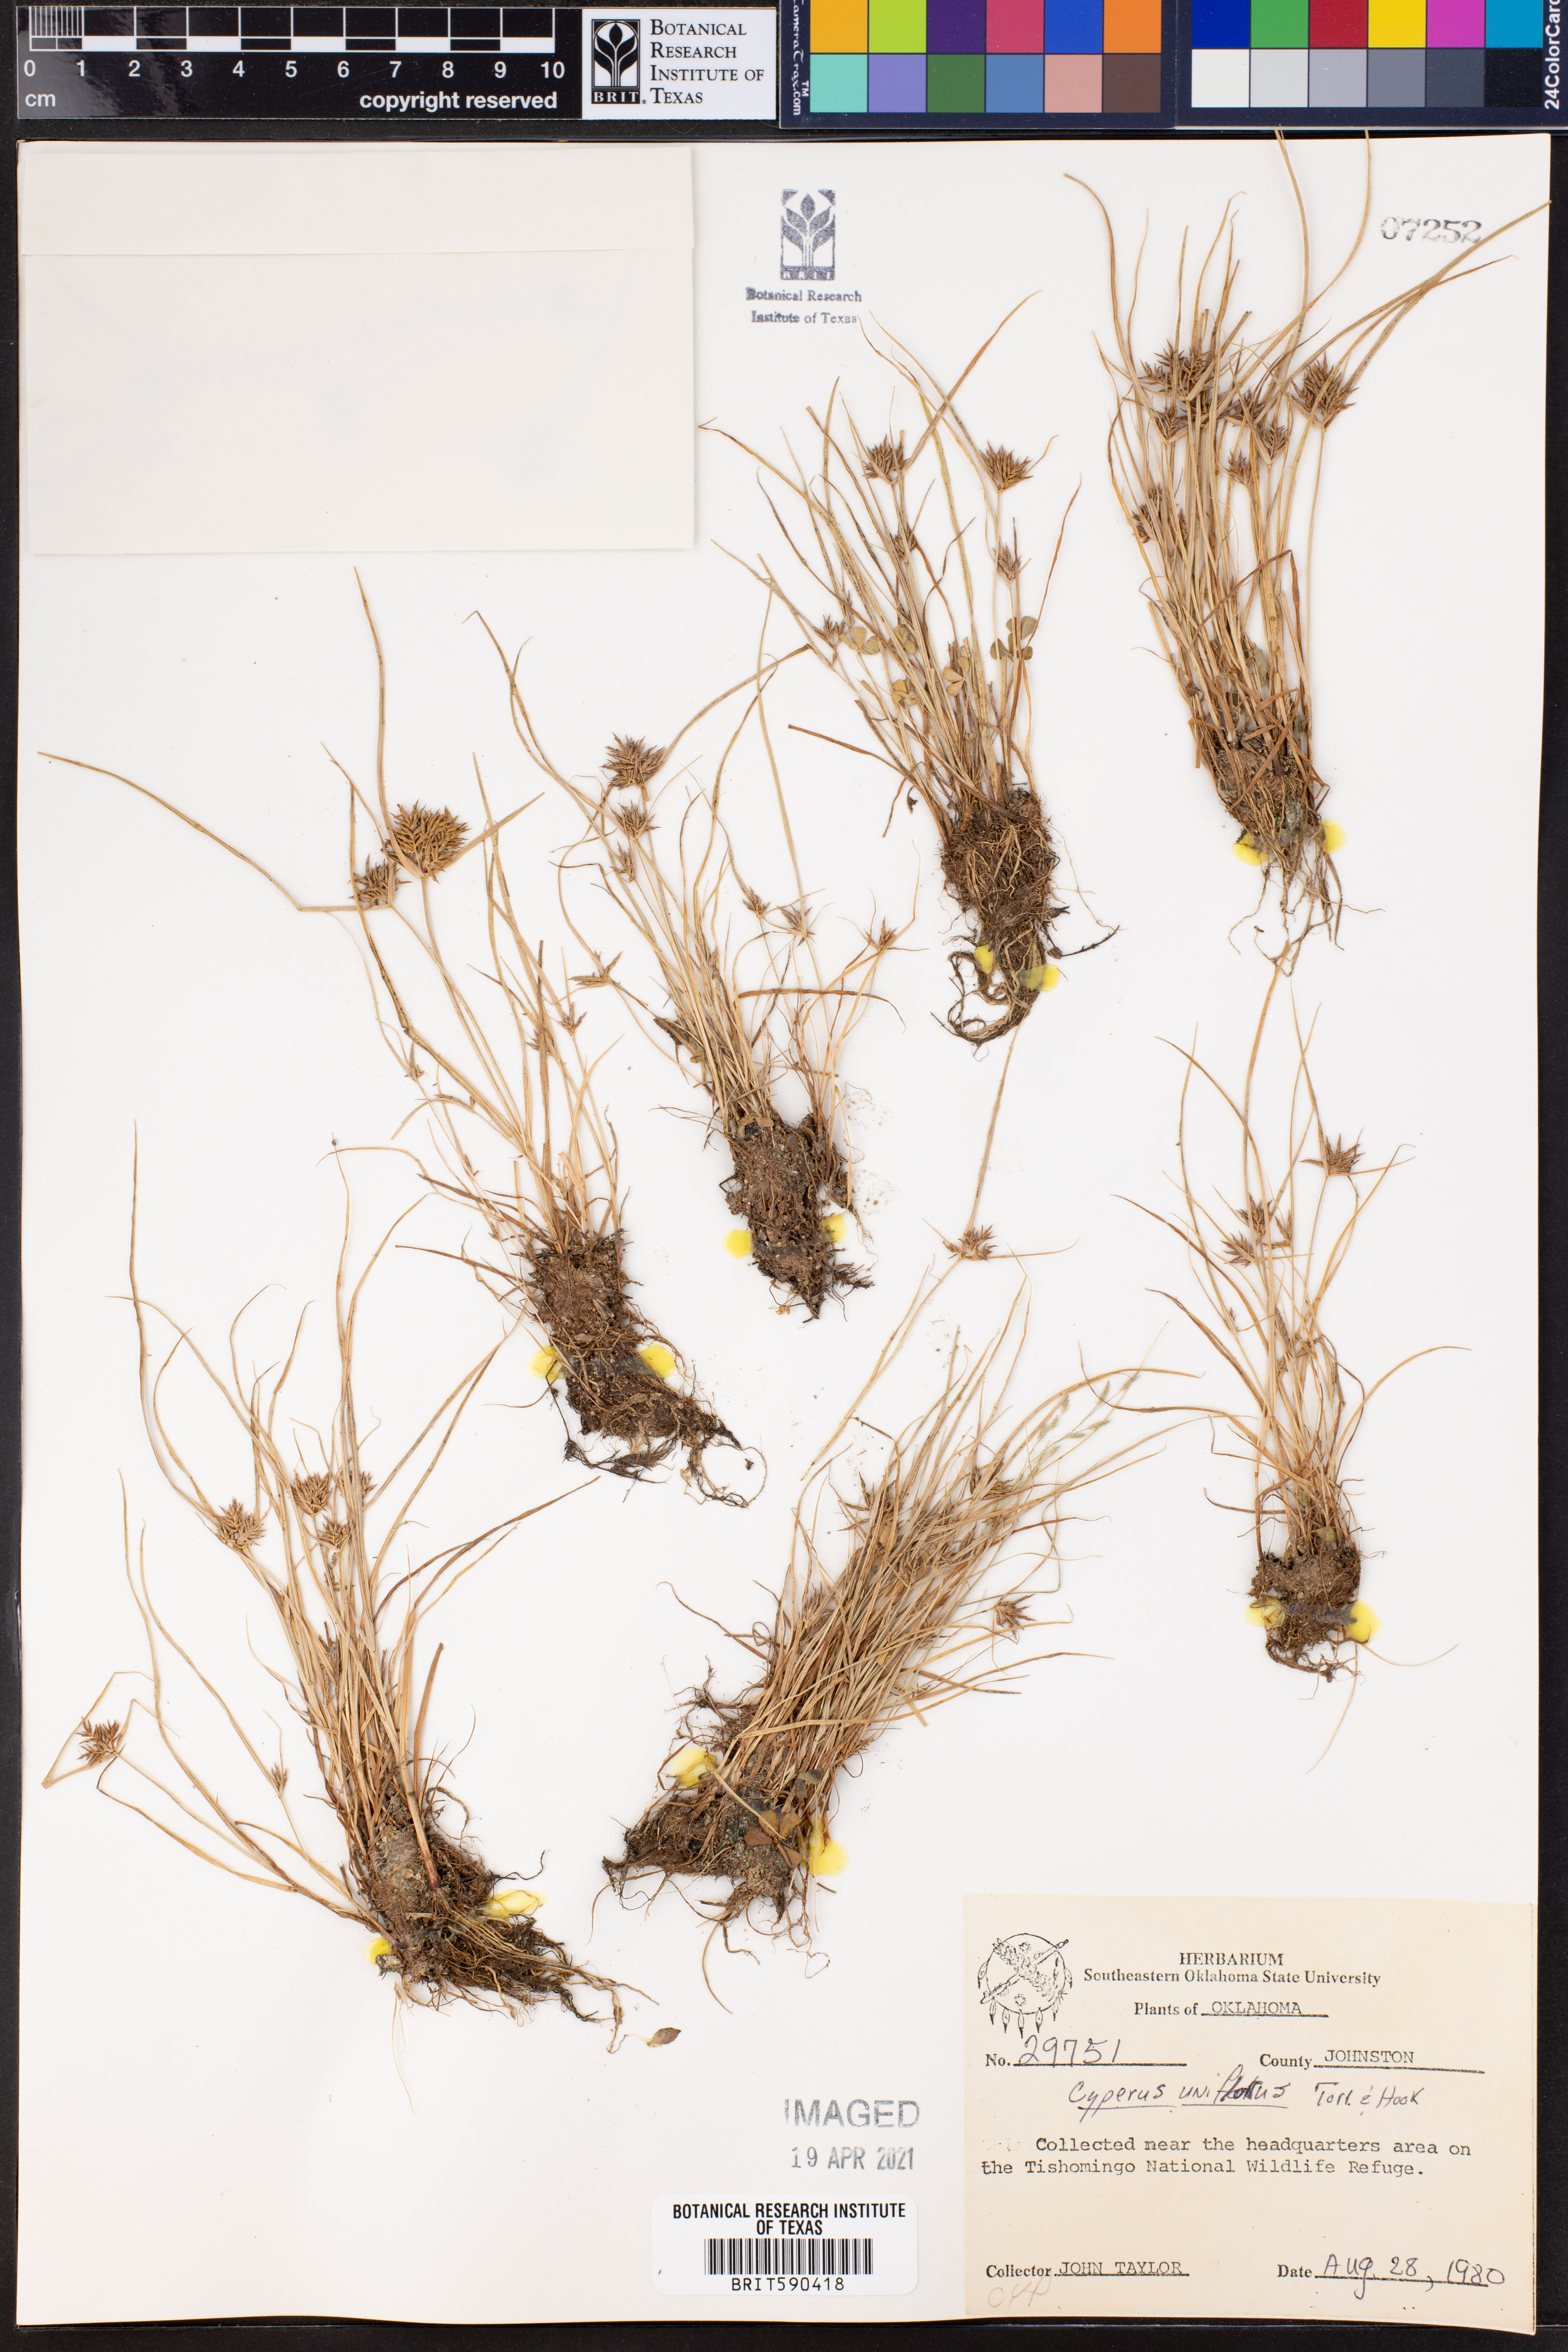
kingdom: Plantae
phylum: Tracheophyta
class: Liliopsida
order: Poales
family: Cyperaceae
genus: Cyperus
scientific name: Cyperus retroflexus
